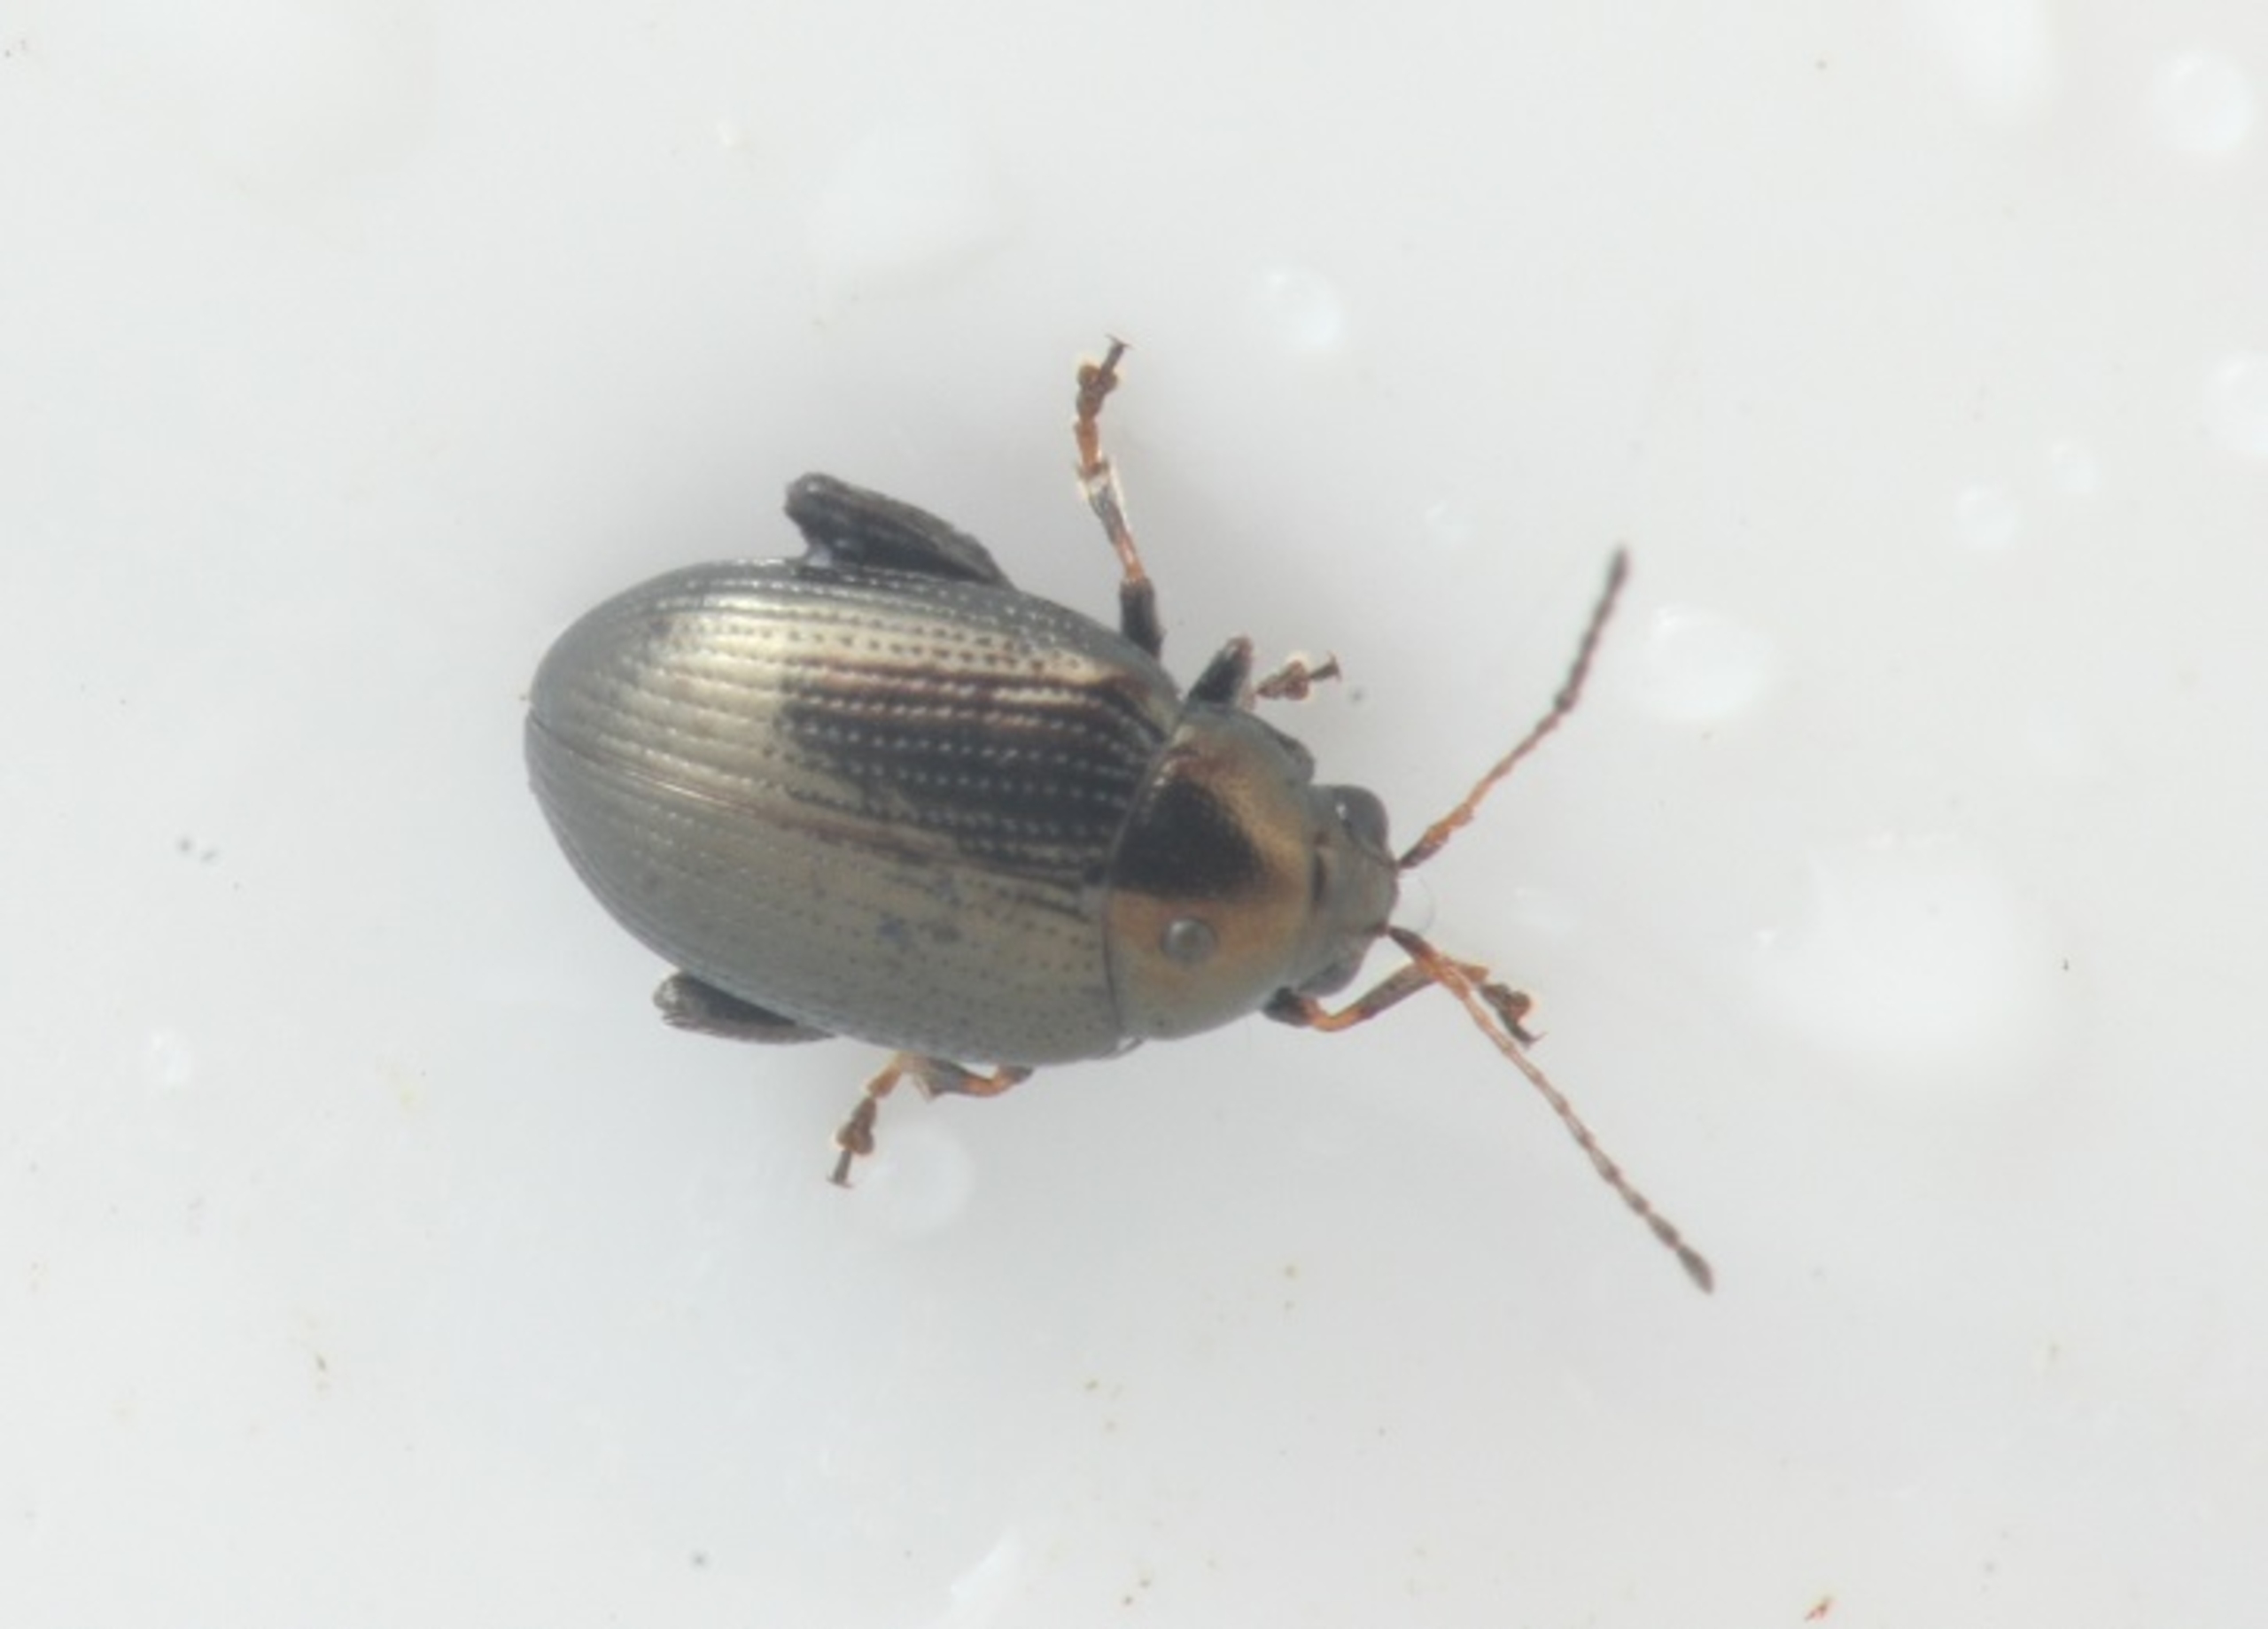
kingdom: Animalia
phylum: Arthropoda
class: Insecta
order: Coleoptera
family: Chrysomelidae
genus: Chaetocnema
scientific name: Chaetocnema concinna
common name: Bedejordloppe
